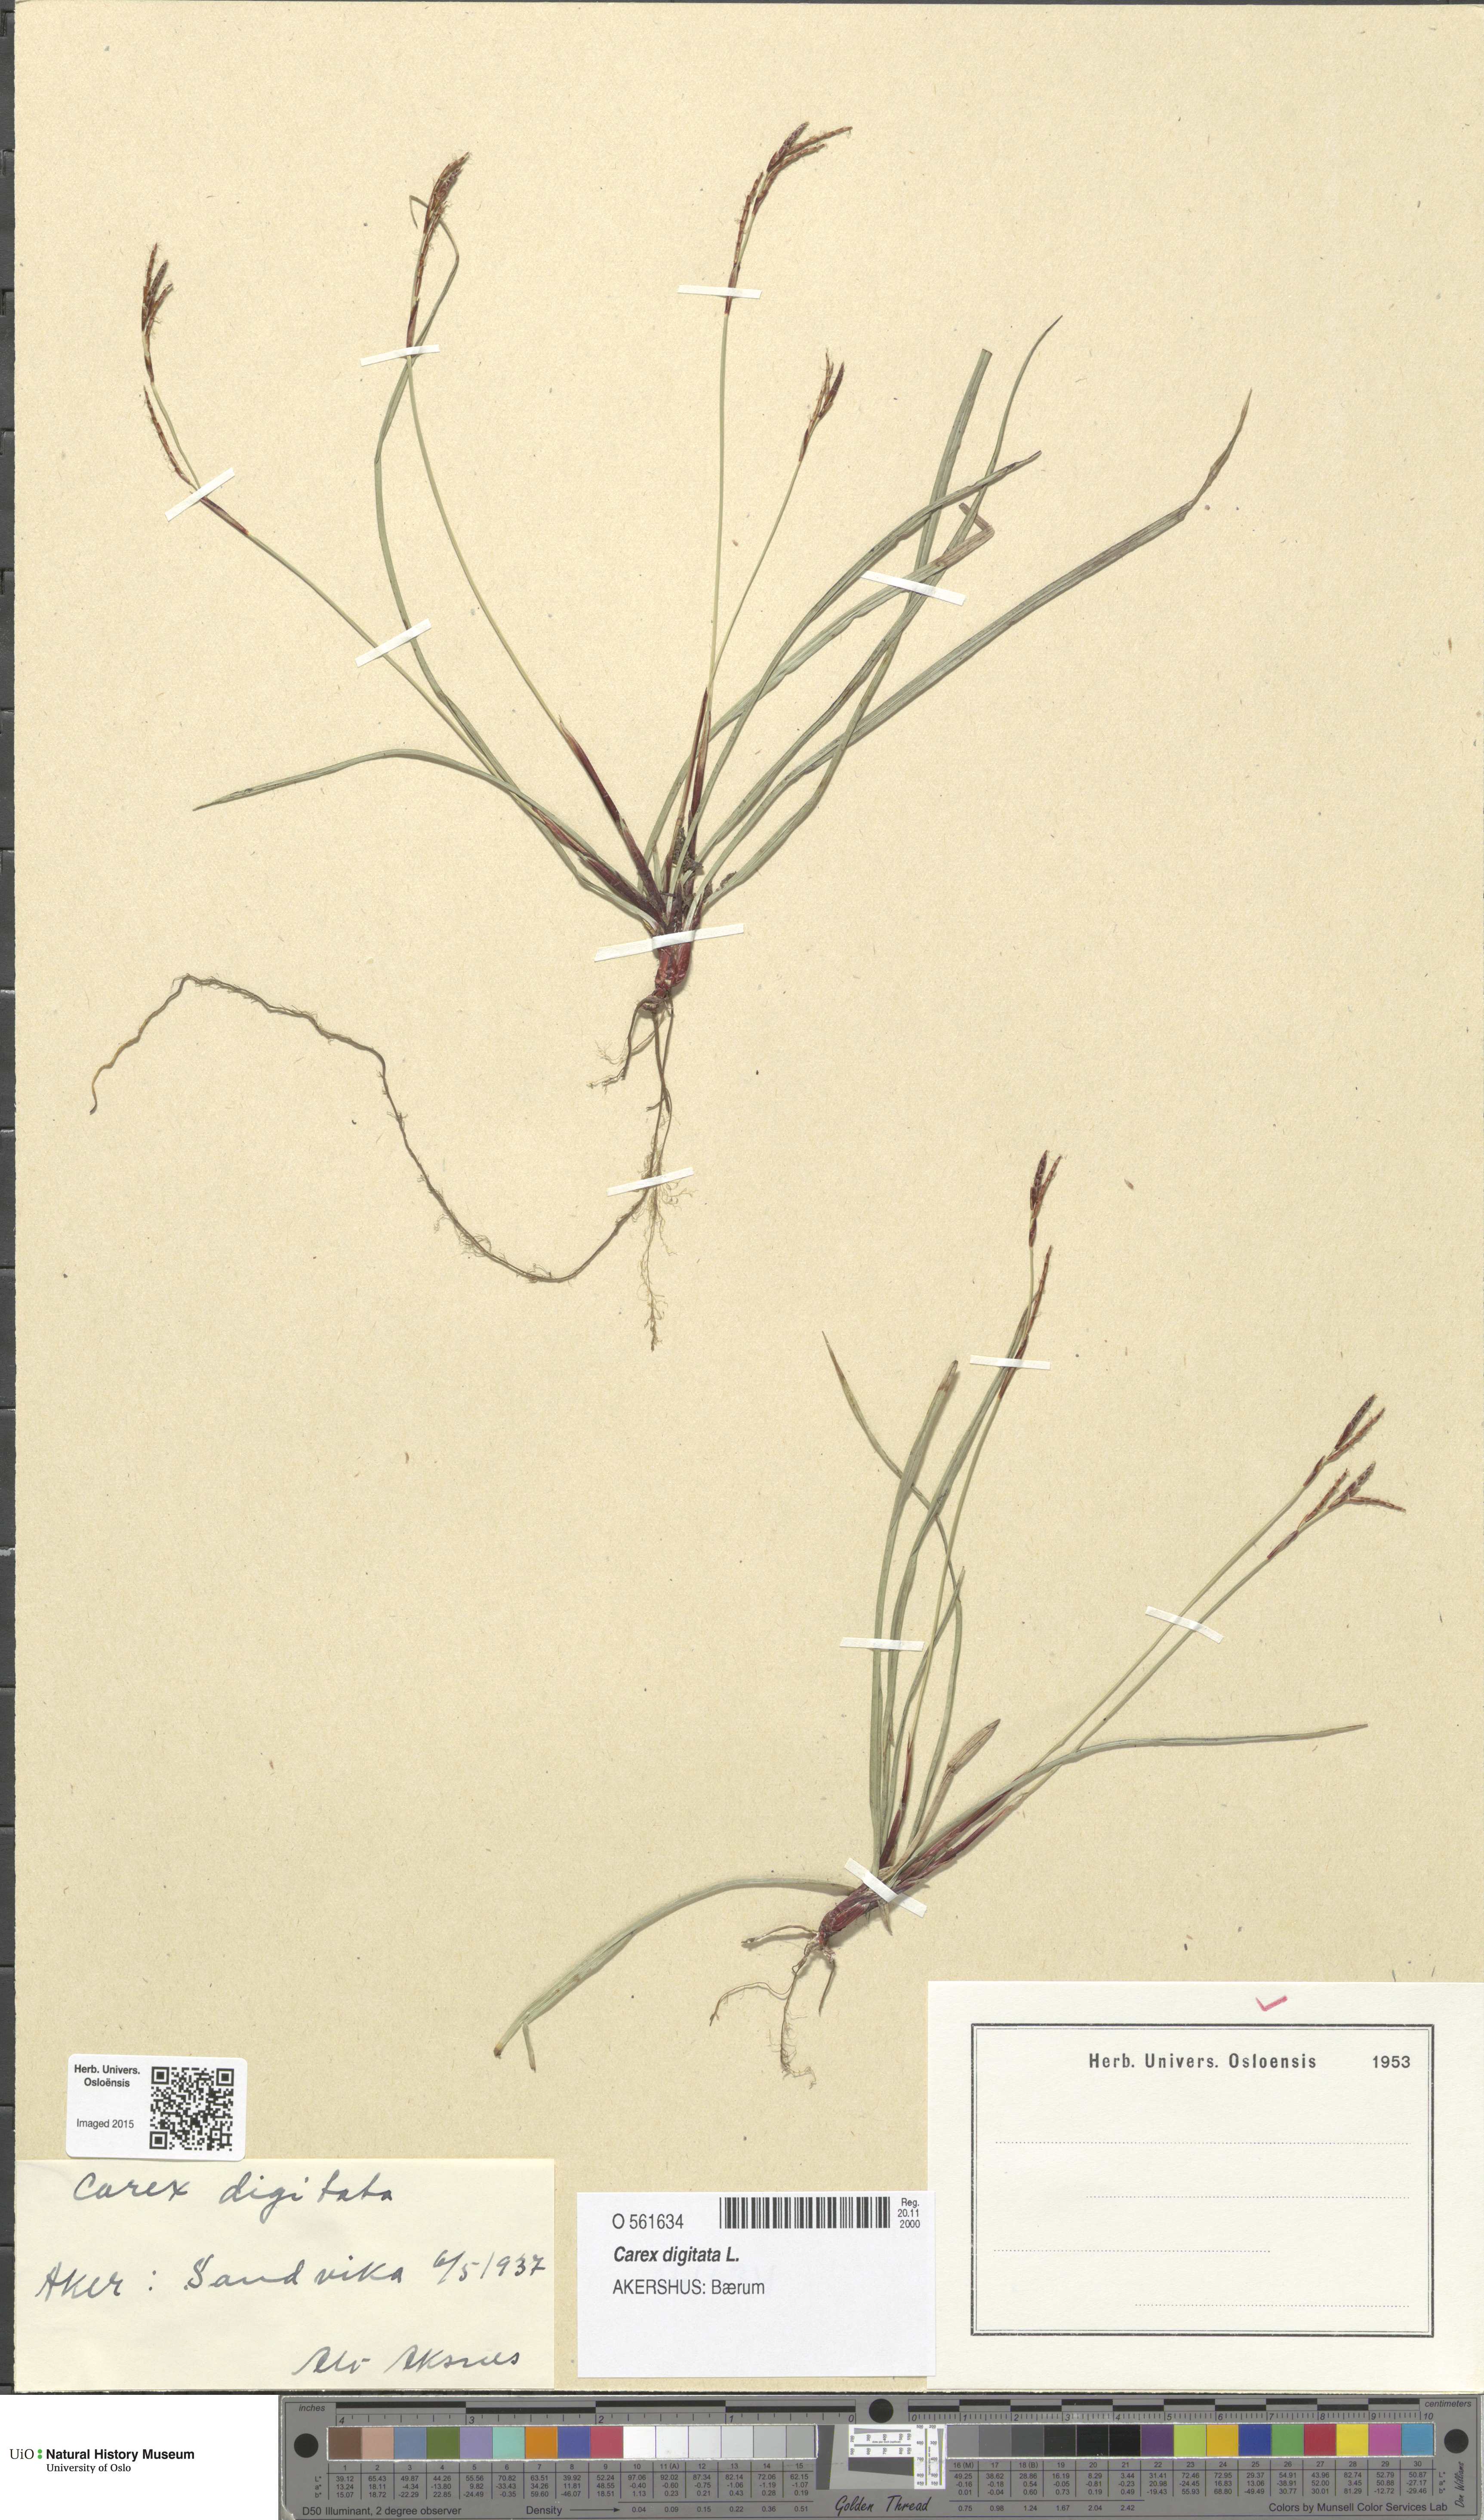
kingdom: Plantae
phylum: Tracheophyta
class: Liliopsida
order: Poales
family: Cyperaceae
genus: Carex
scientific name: Carex digitata
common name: Fingered sedge
